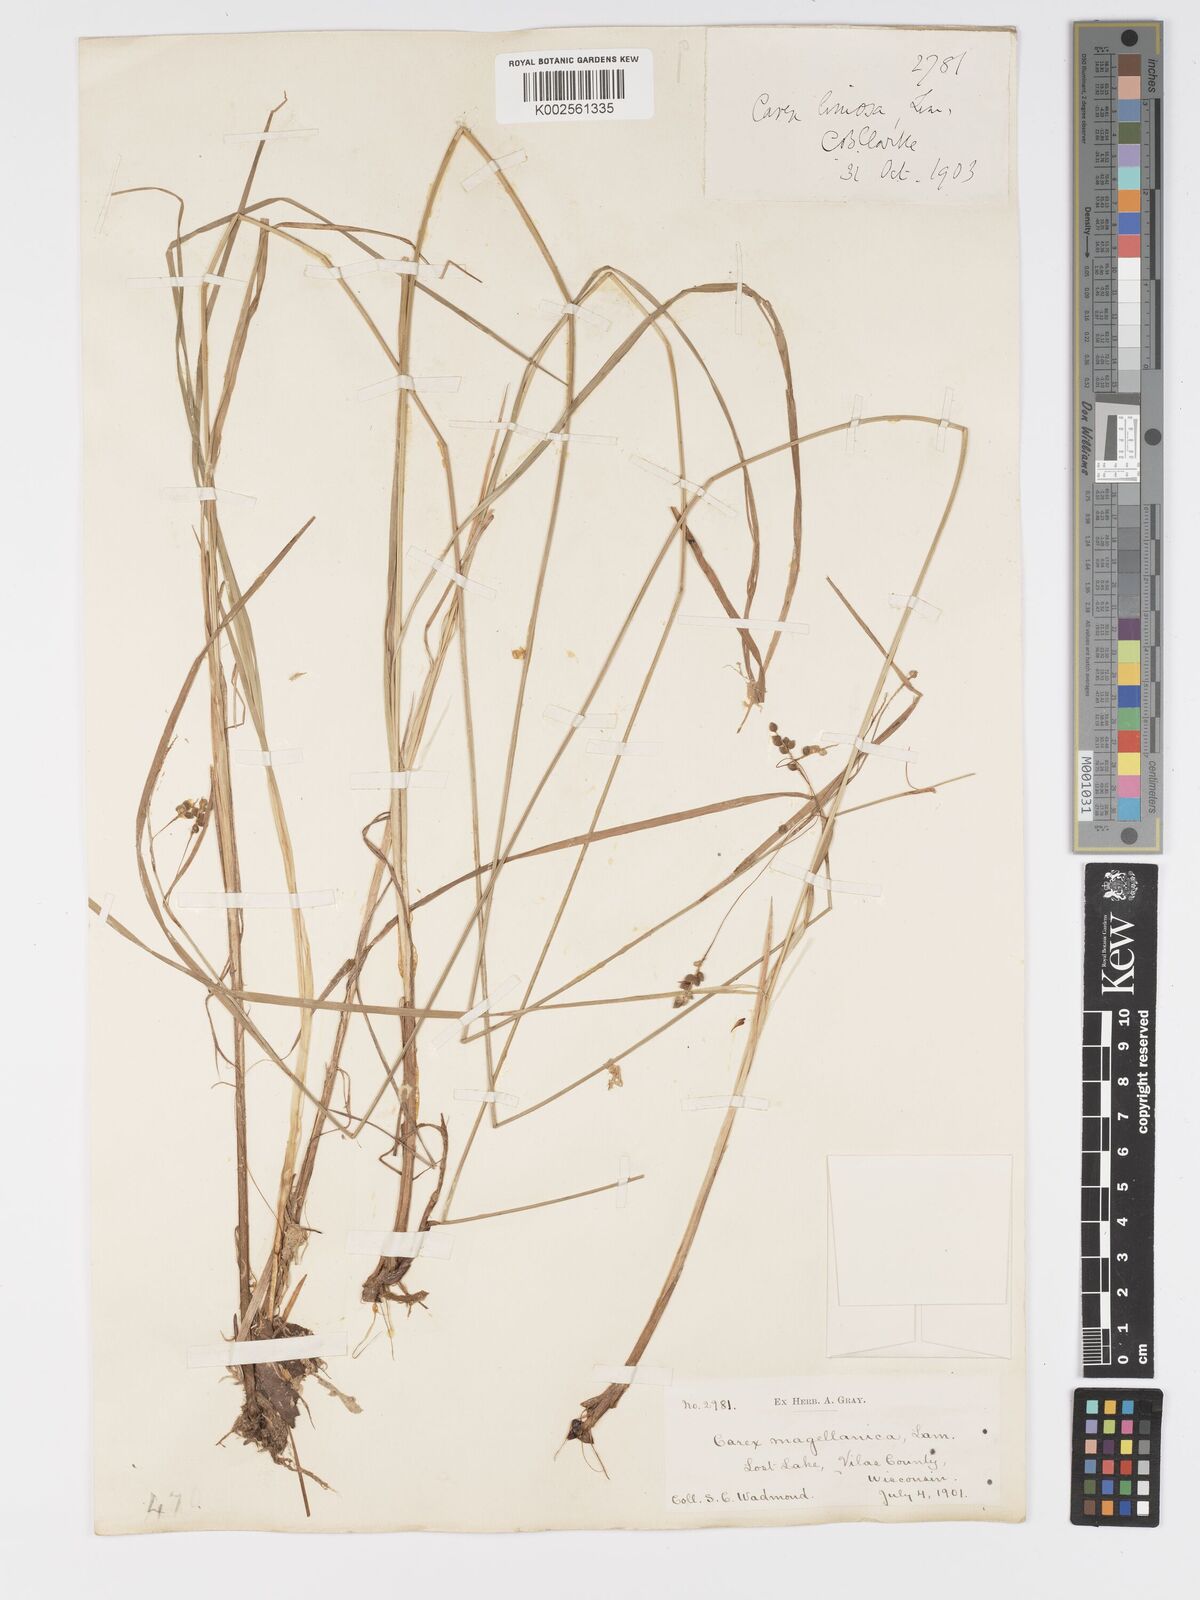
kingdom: Plantae
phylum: Tracheophyta
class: Liliopsida
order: Poales
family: Cyperaceae
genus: Carex
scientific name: Carex magellanica
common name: Bog sedge
